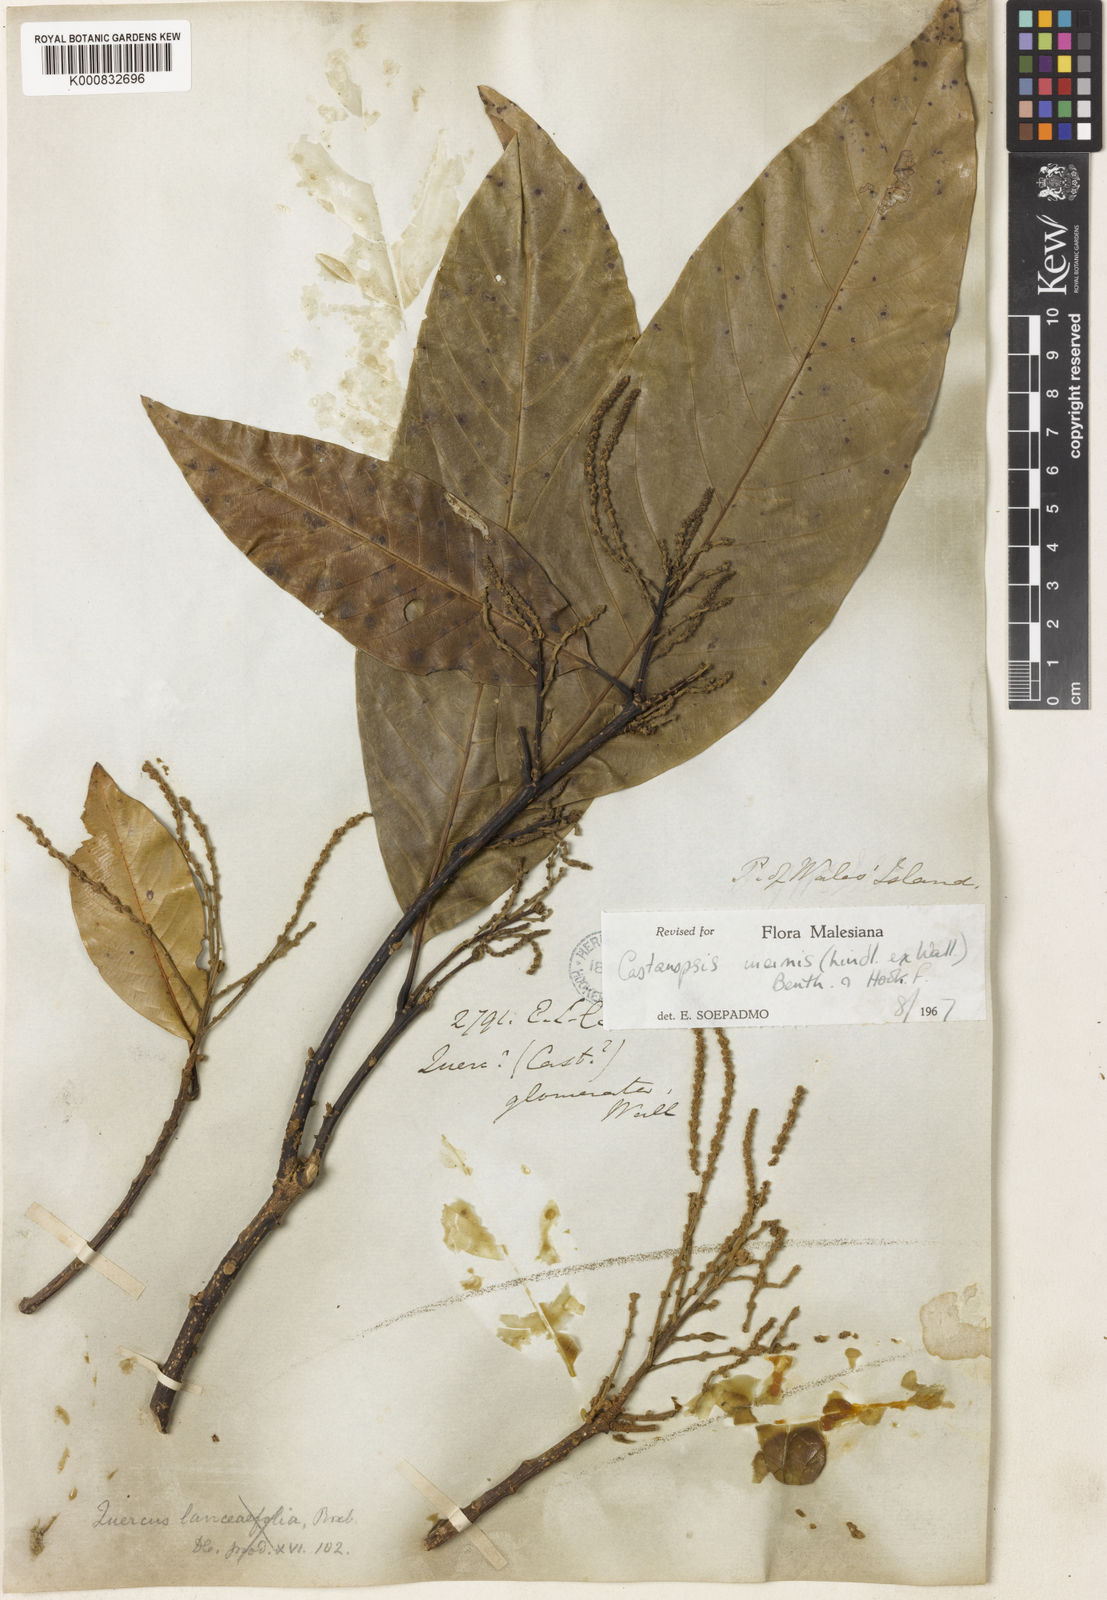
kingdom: Plantae
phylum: Tracheophyta
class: Magnoliopsida
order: Fagales
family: Fagaceae
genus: Castanopsis
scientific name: Castanopsis inermis
